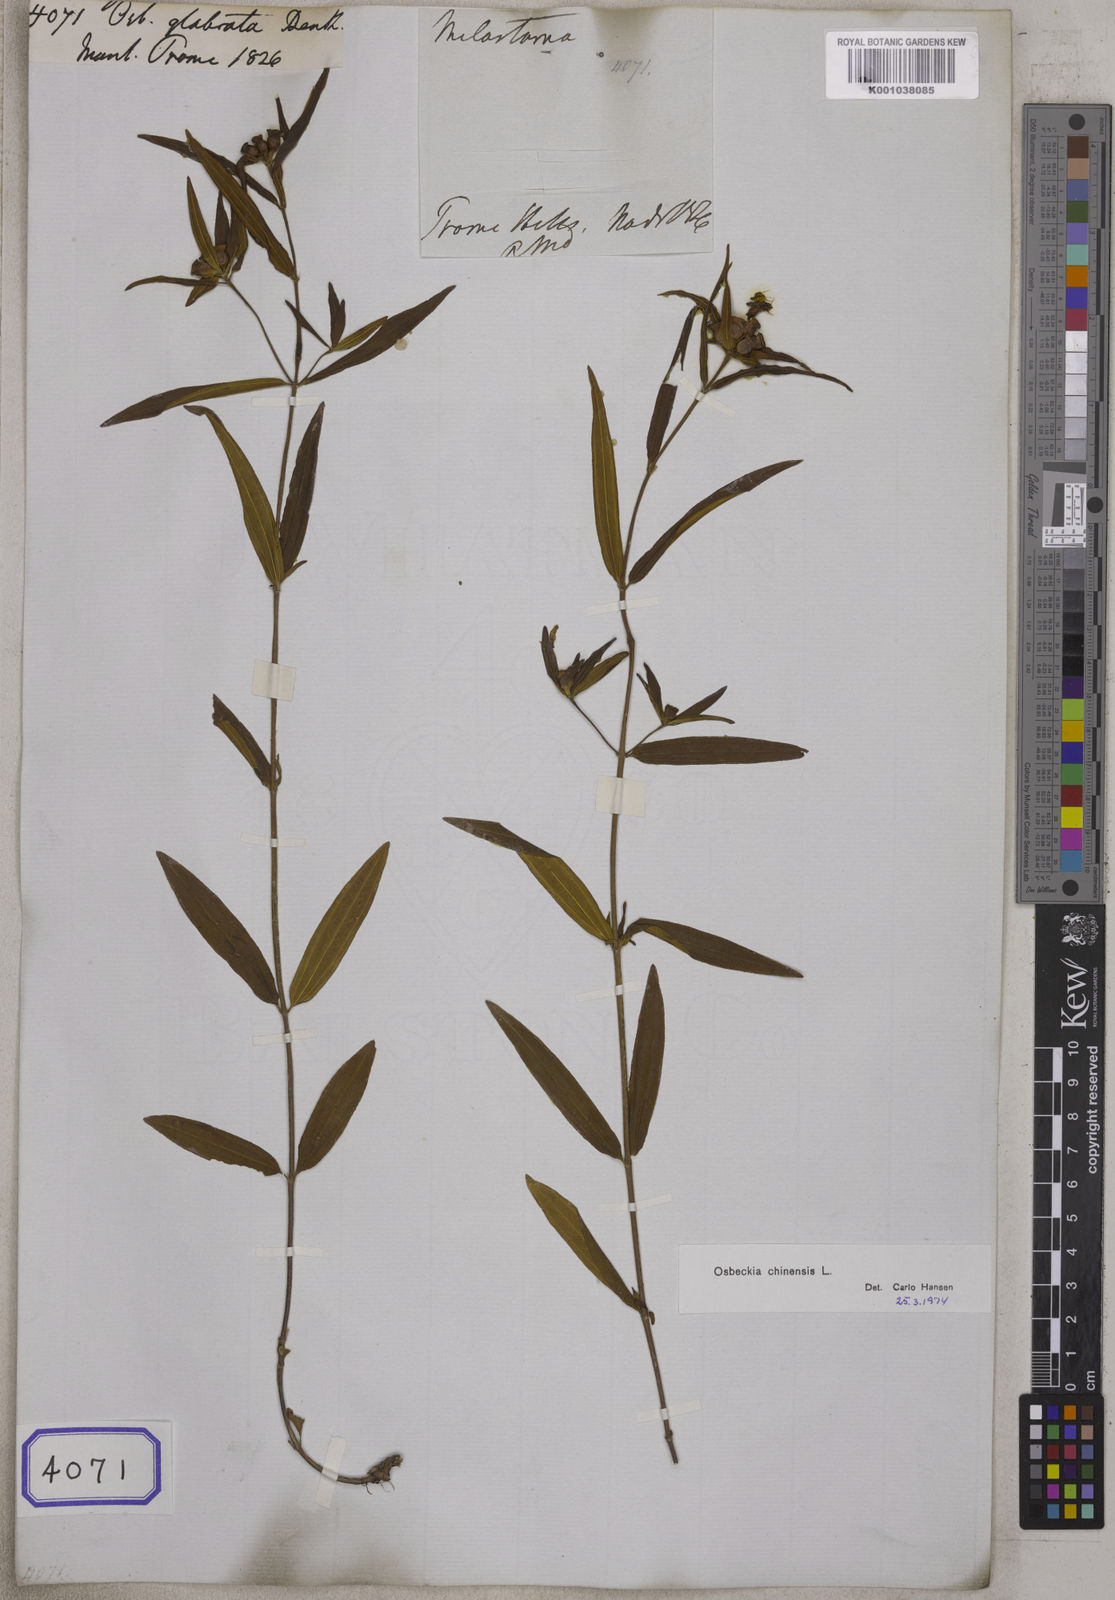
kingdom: Plantae
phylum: Tracheophyta
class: Magnoliopsida
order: Myrtales
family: Melastomataceae
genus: Osbeckia
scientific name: Osbeckia chinensis
